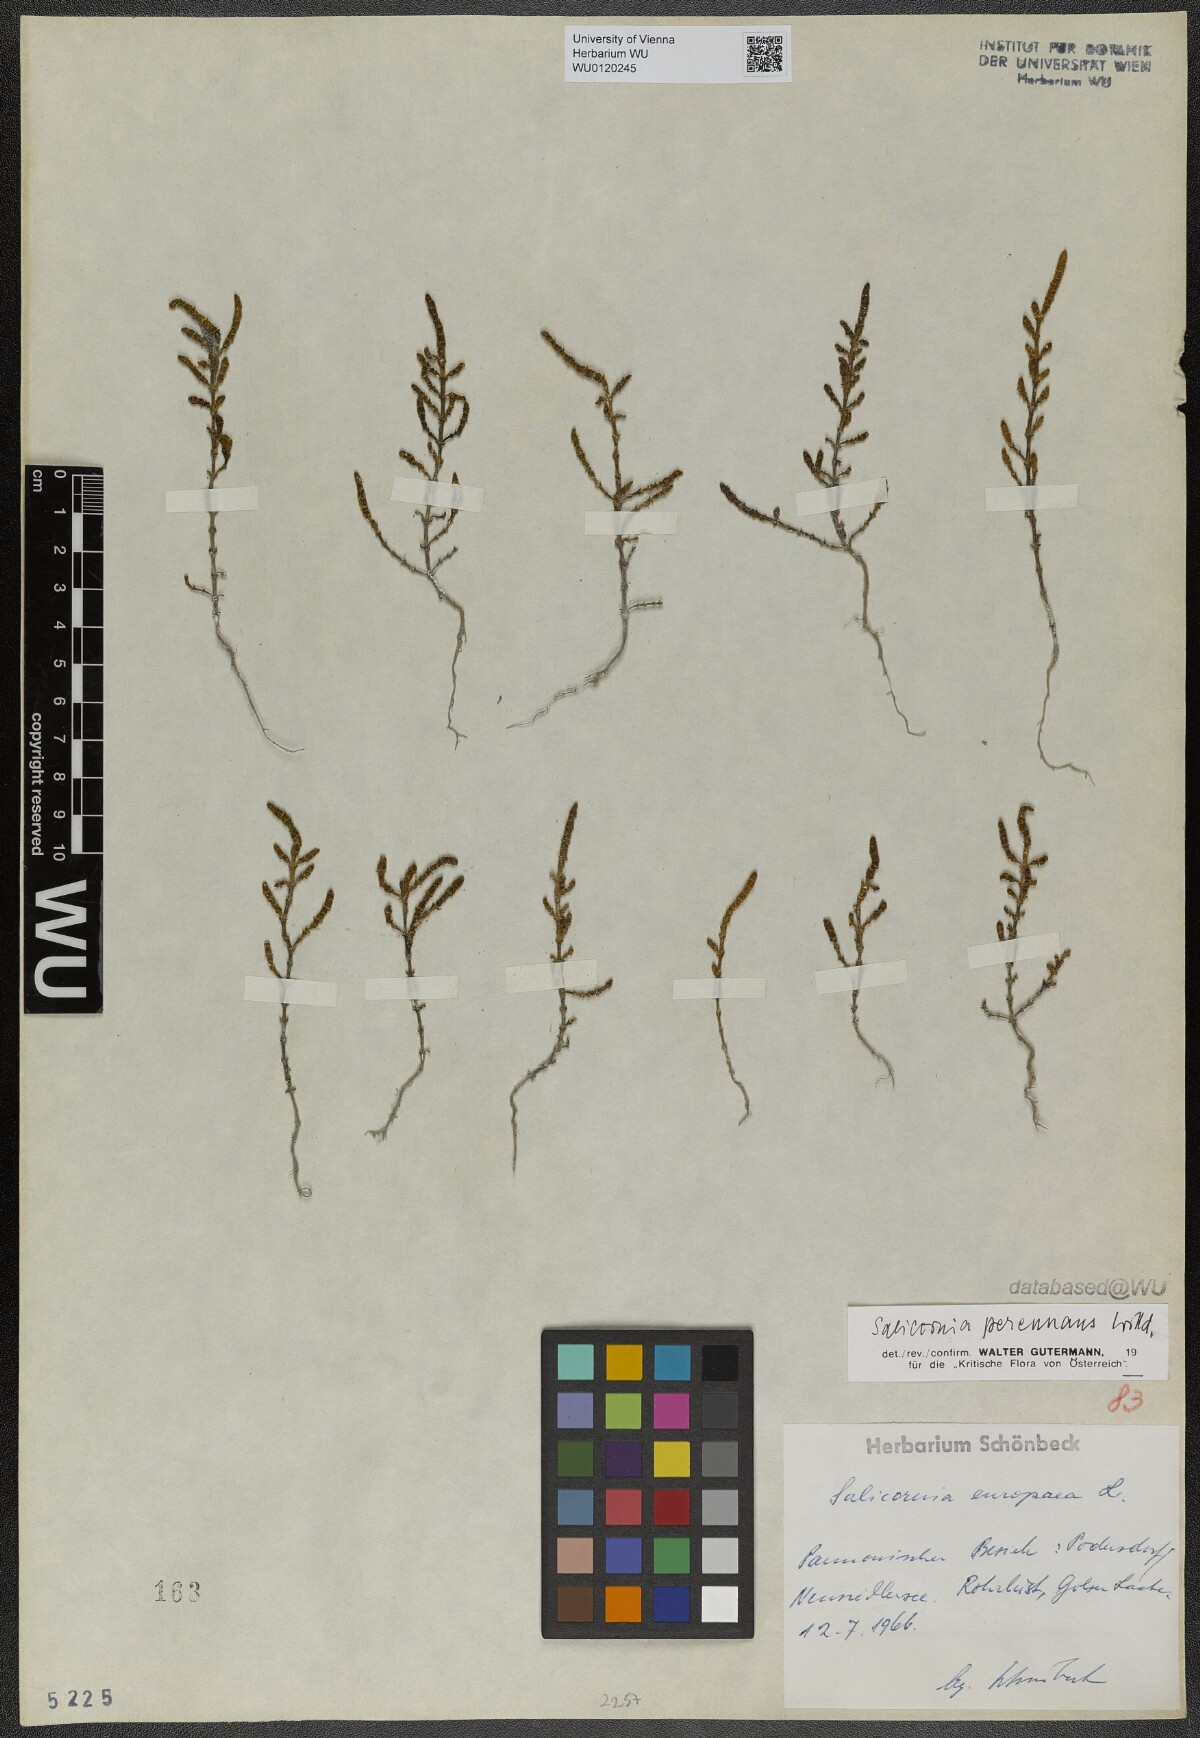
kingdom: Plantae
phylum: Tracheophyta
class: Magnoliopsida
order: Caryophyllales
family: Amaranthaceae
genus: Salicornia
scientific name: Salicornia perennans
